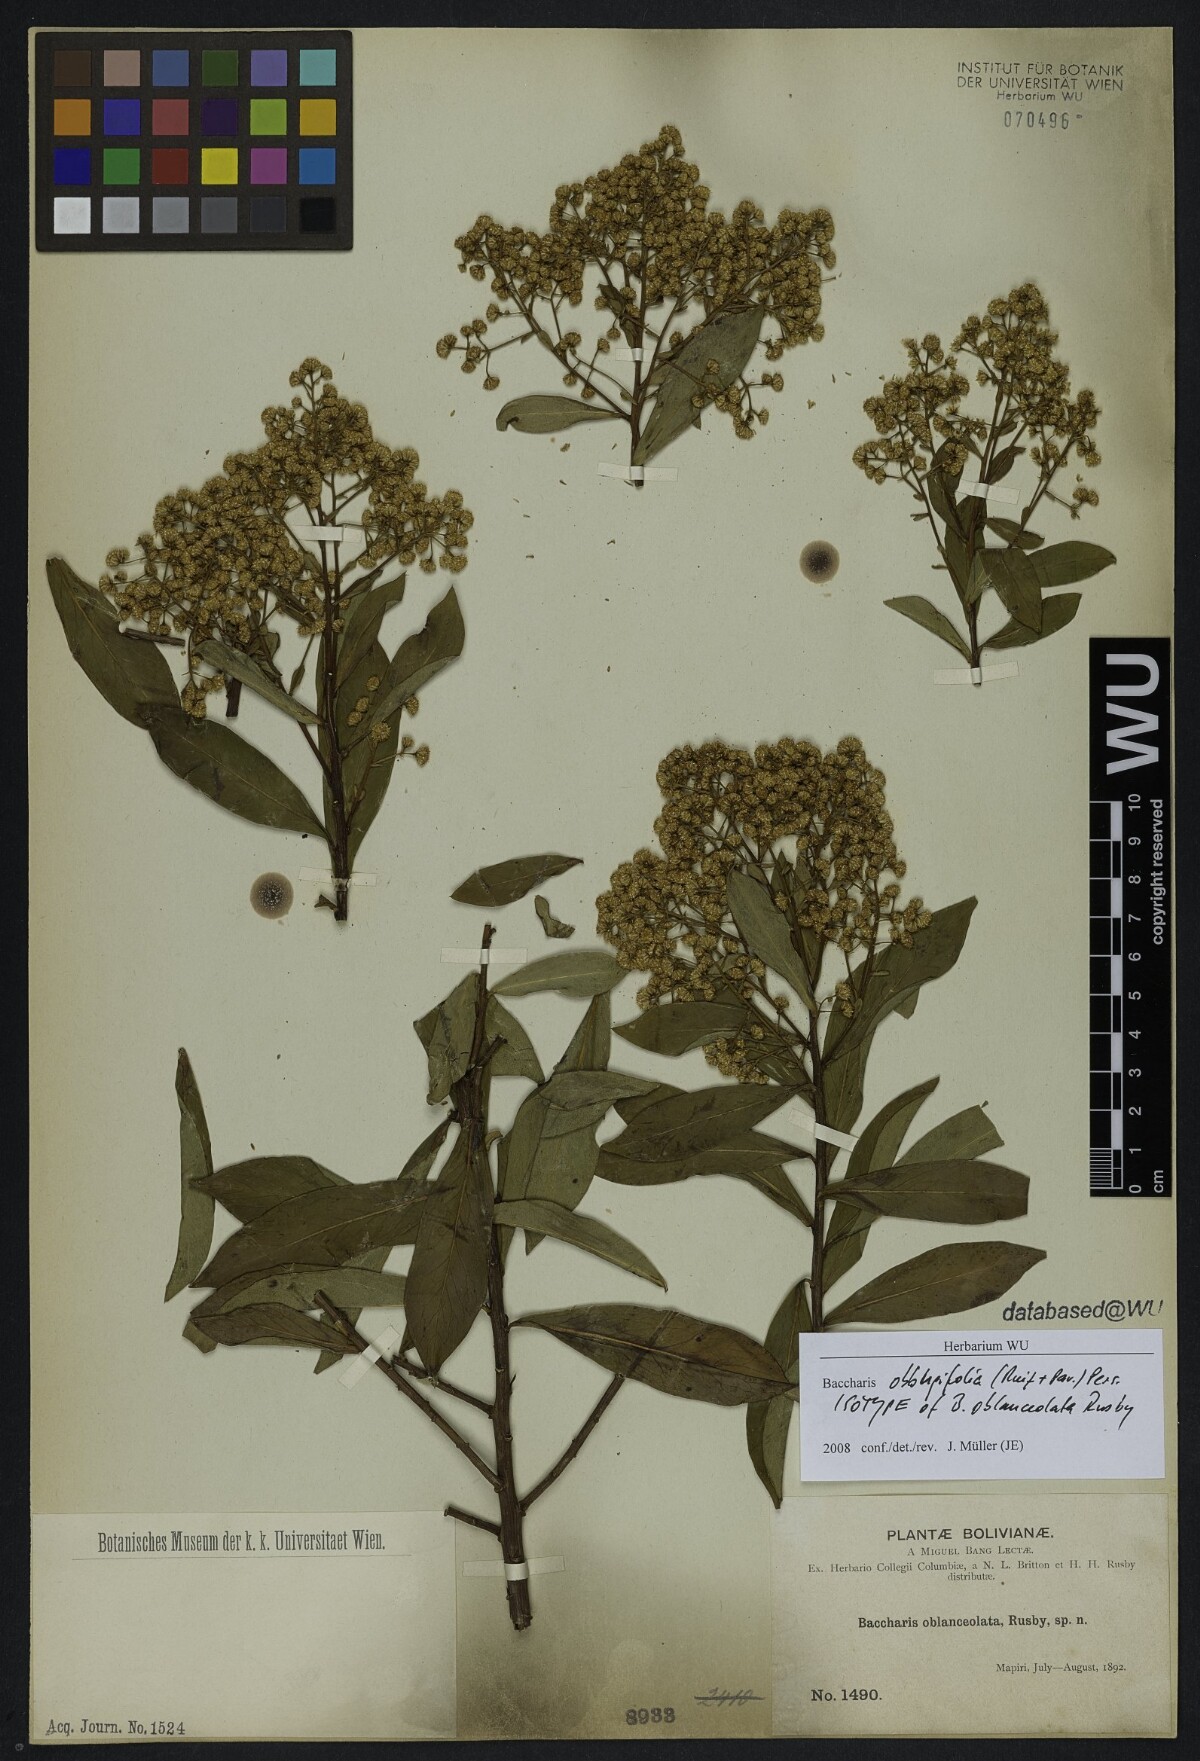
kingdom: Plantae
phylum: Tracheophyta
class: Magnoliopsida
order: Asterales
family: Asteraceae
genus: Baccharis
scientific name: Baccharis oblongifolia
